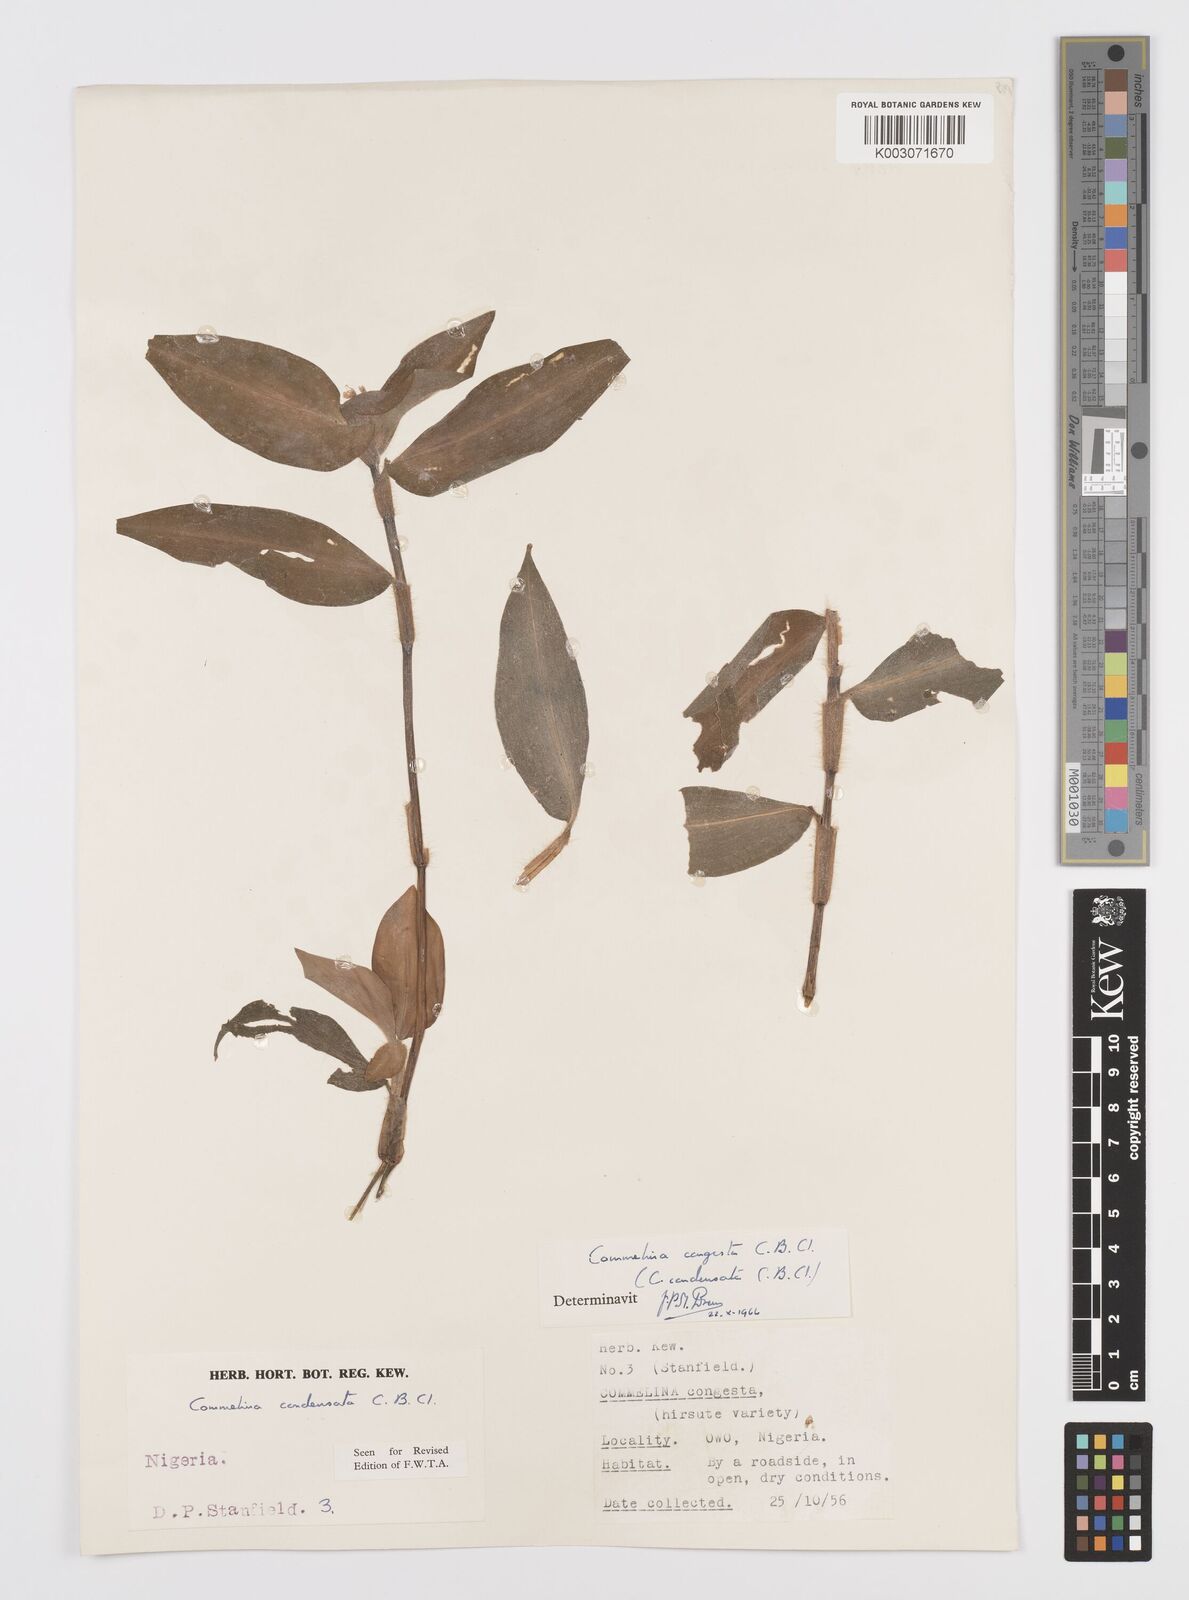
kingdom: Plantae
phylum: Tracheophyta
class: Liliopsida
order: Commelinales
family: Commelinaceae
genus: Commelina
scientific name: Commelina congesta
